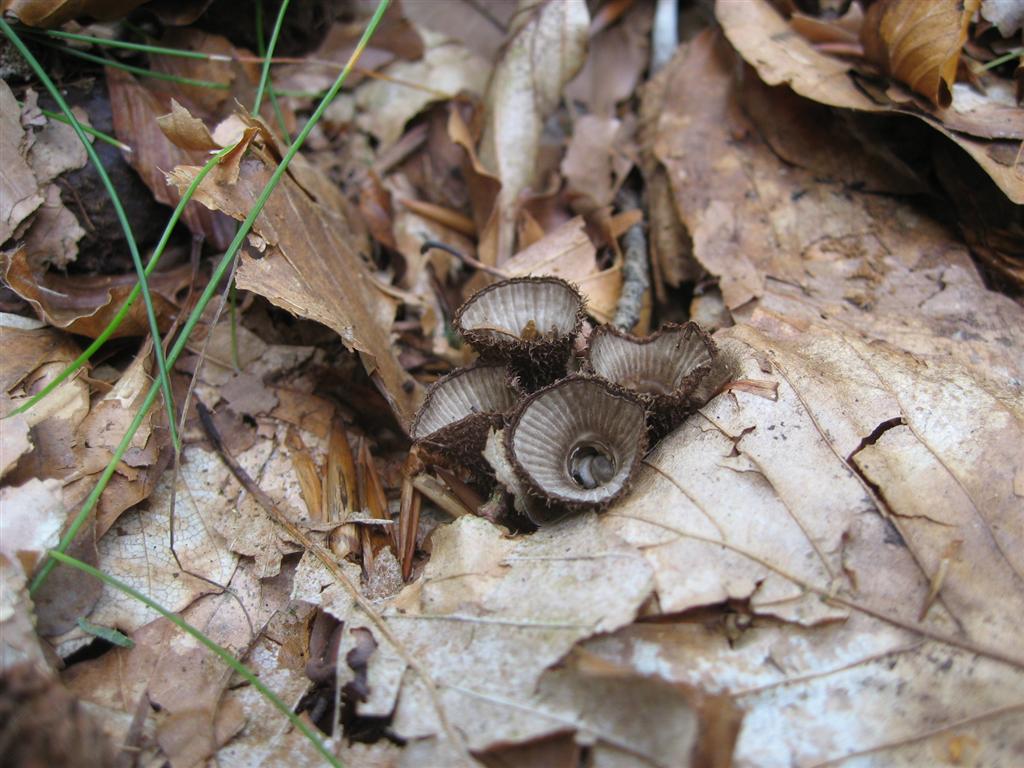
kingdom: Fungi
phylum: Basidiomycota
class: Agaricomycetes
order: Agaricales
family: Agaricaceae
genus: Cyathus
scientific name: Cyathus striatus
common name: stribet redesvamp
